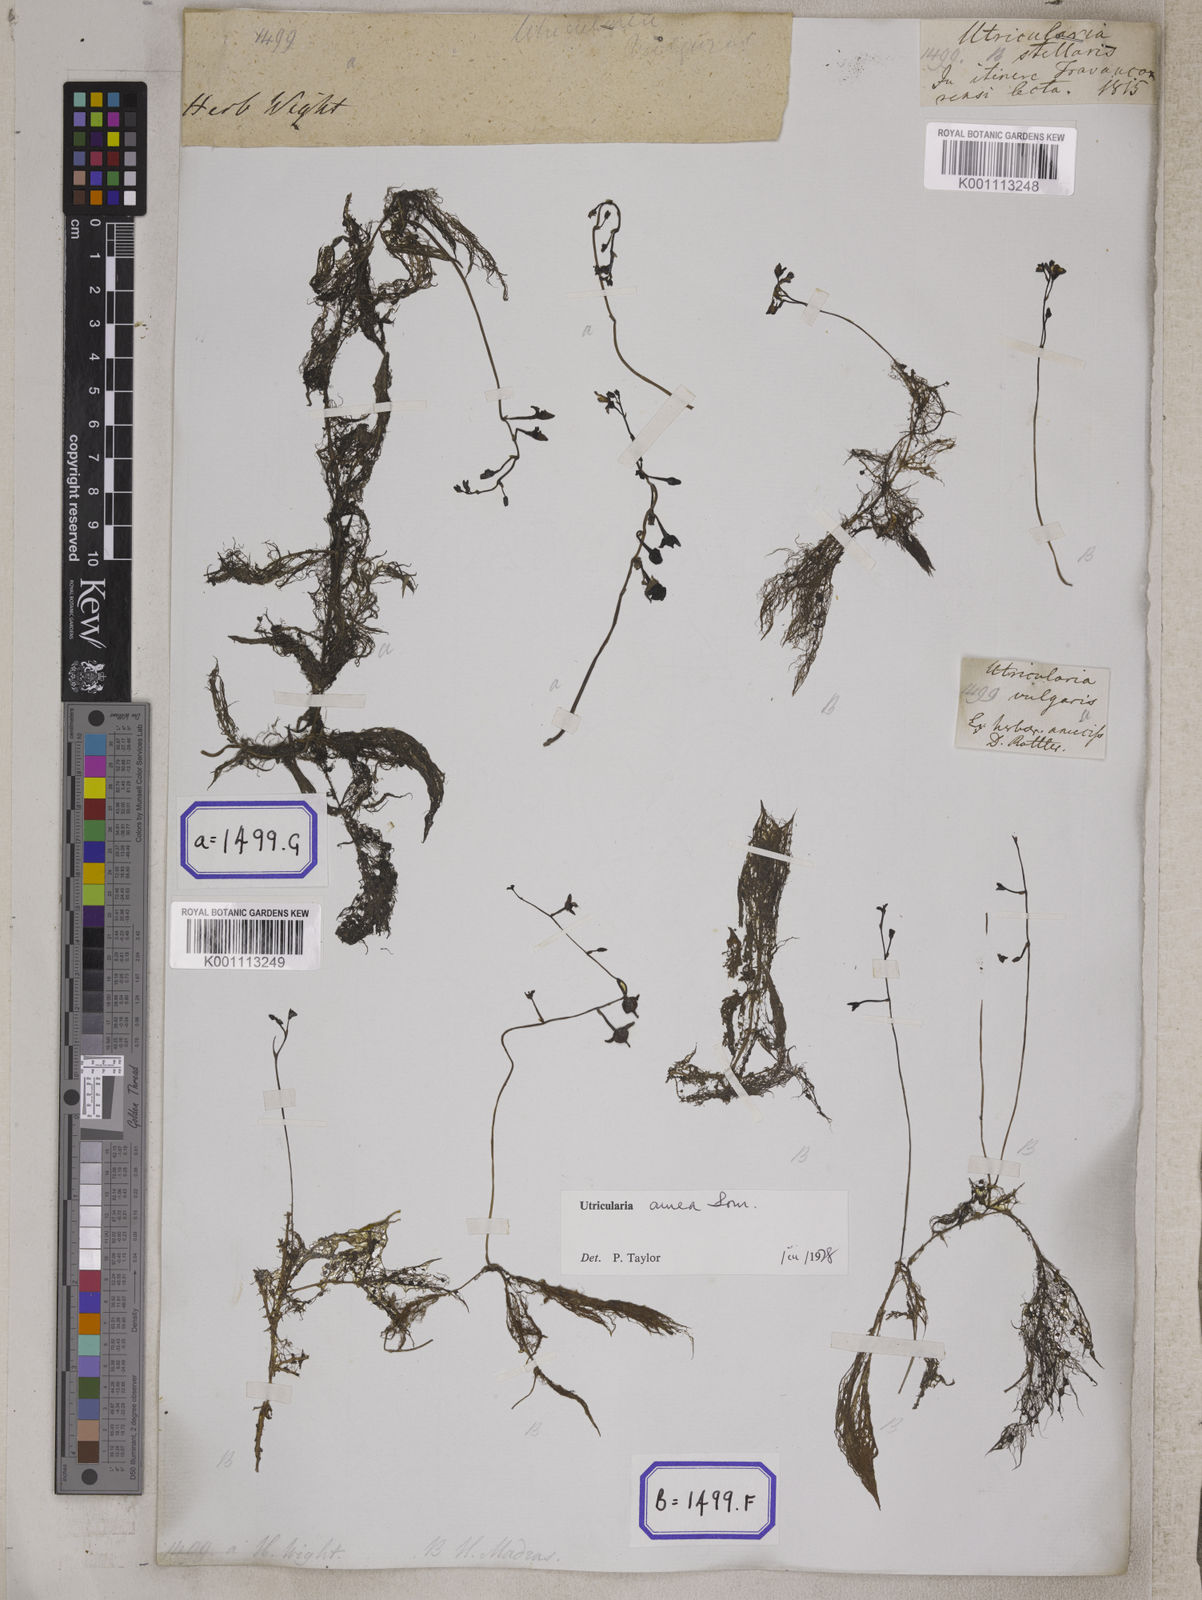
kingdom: Plantae
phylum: Tracheophyta
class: Magnoliopsida
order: Lamiales
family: Lentibulariaceae
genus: Utricularia
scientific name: Utricularia aurea
